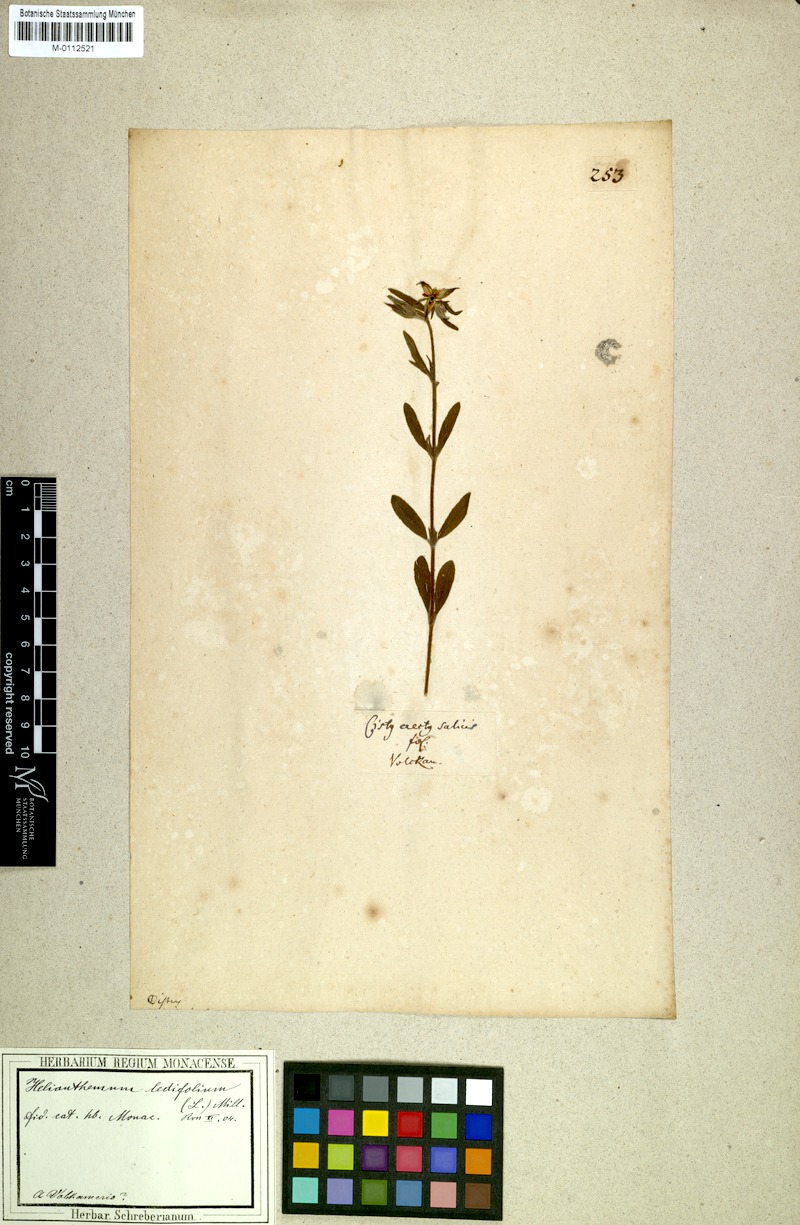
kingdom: Plantae
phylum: Tracheophyta
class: Magnoliopsida
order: Malvales
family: Cistaceae
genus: Helianthemum
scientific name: Helianthemum ledifolium
